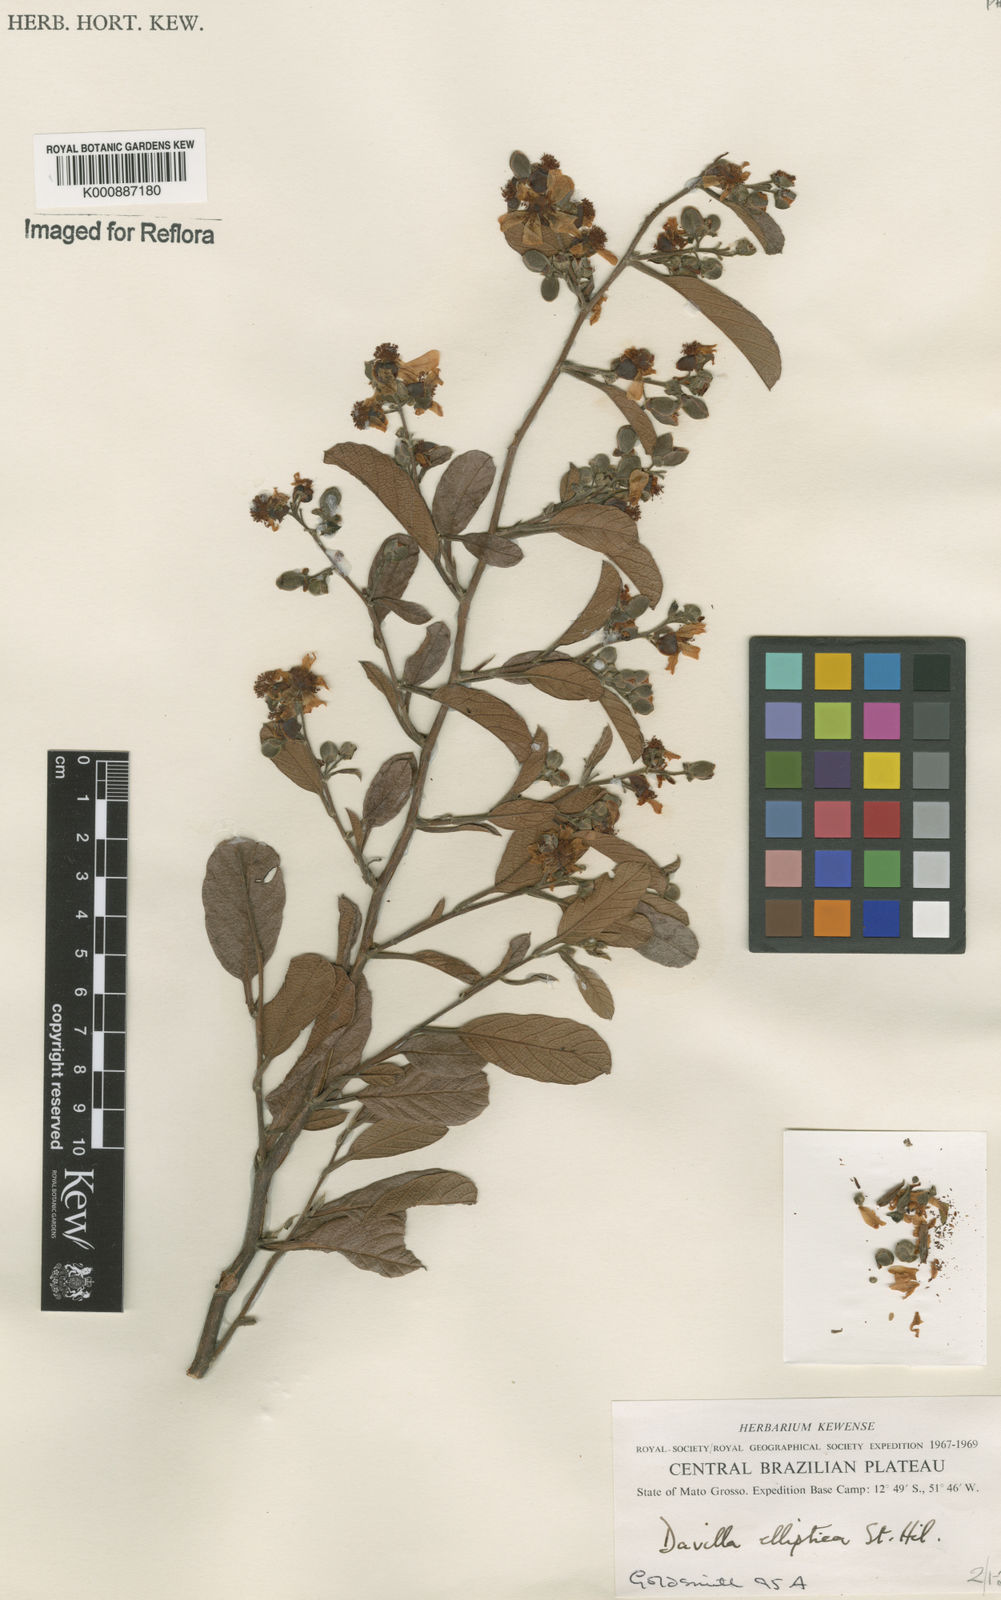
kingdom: Plantae
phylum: Tracheophyta
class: Magnoliopsida
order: Dilleniales
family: Dilleniaceae
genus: Davilla
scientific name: Davilla elliptica
